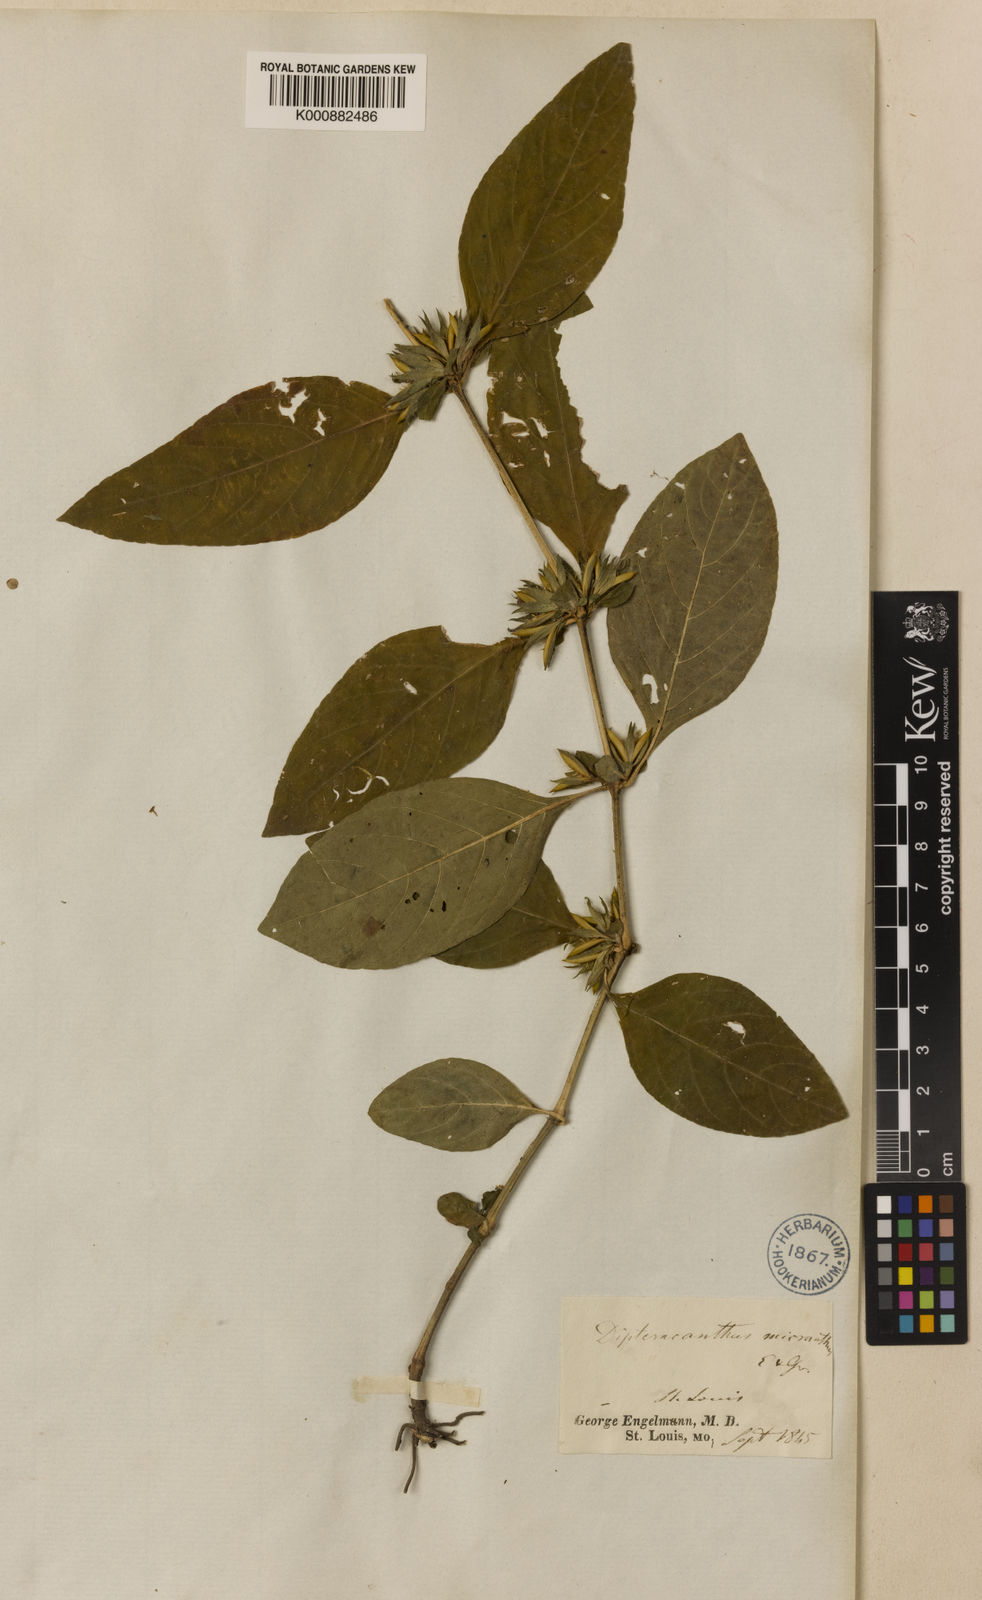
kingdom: Plantae
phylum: Tracheophyta
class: Magnoliopsida
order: Lamiales
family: Acanthaceae
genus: Ruellia
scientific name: Ruellia strepens
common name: Limestone wild petunia
